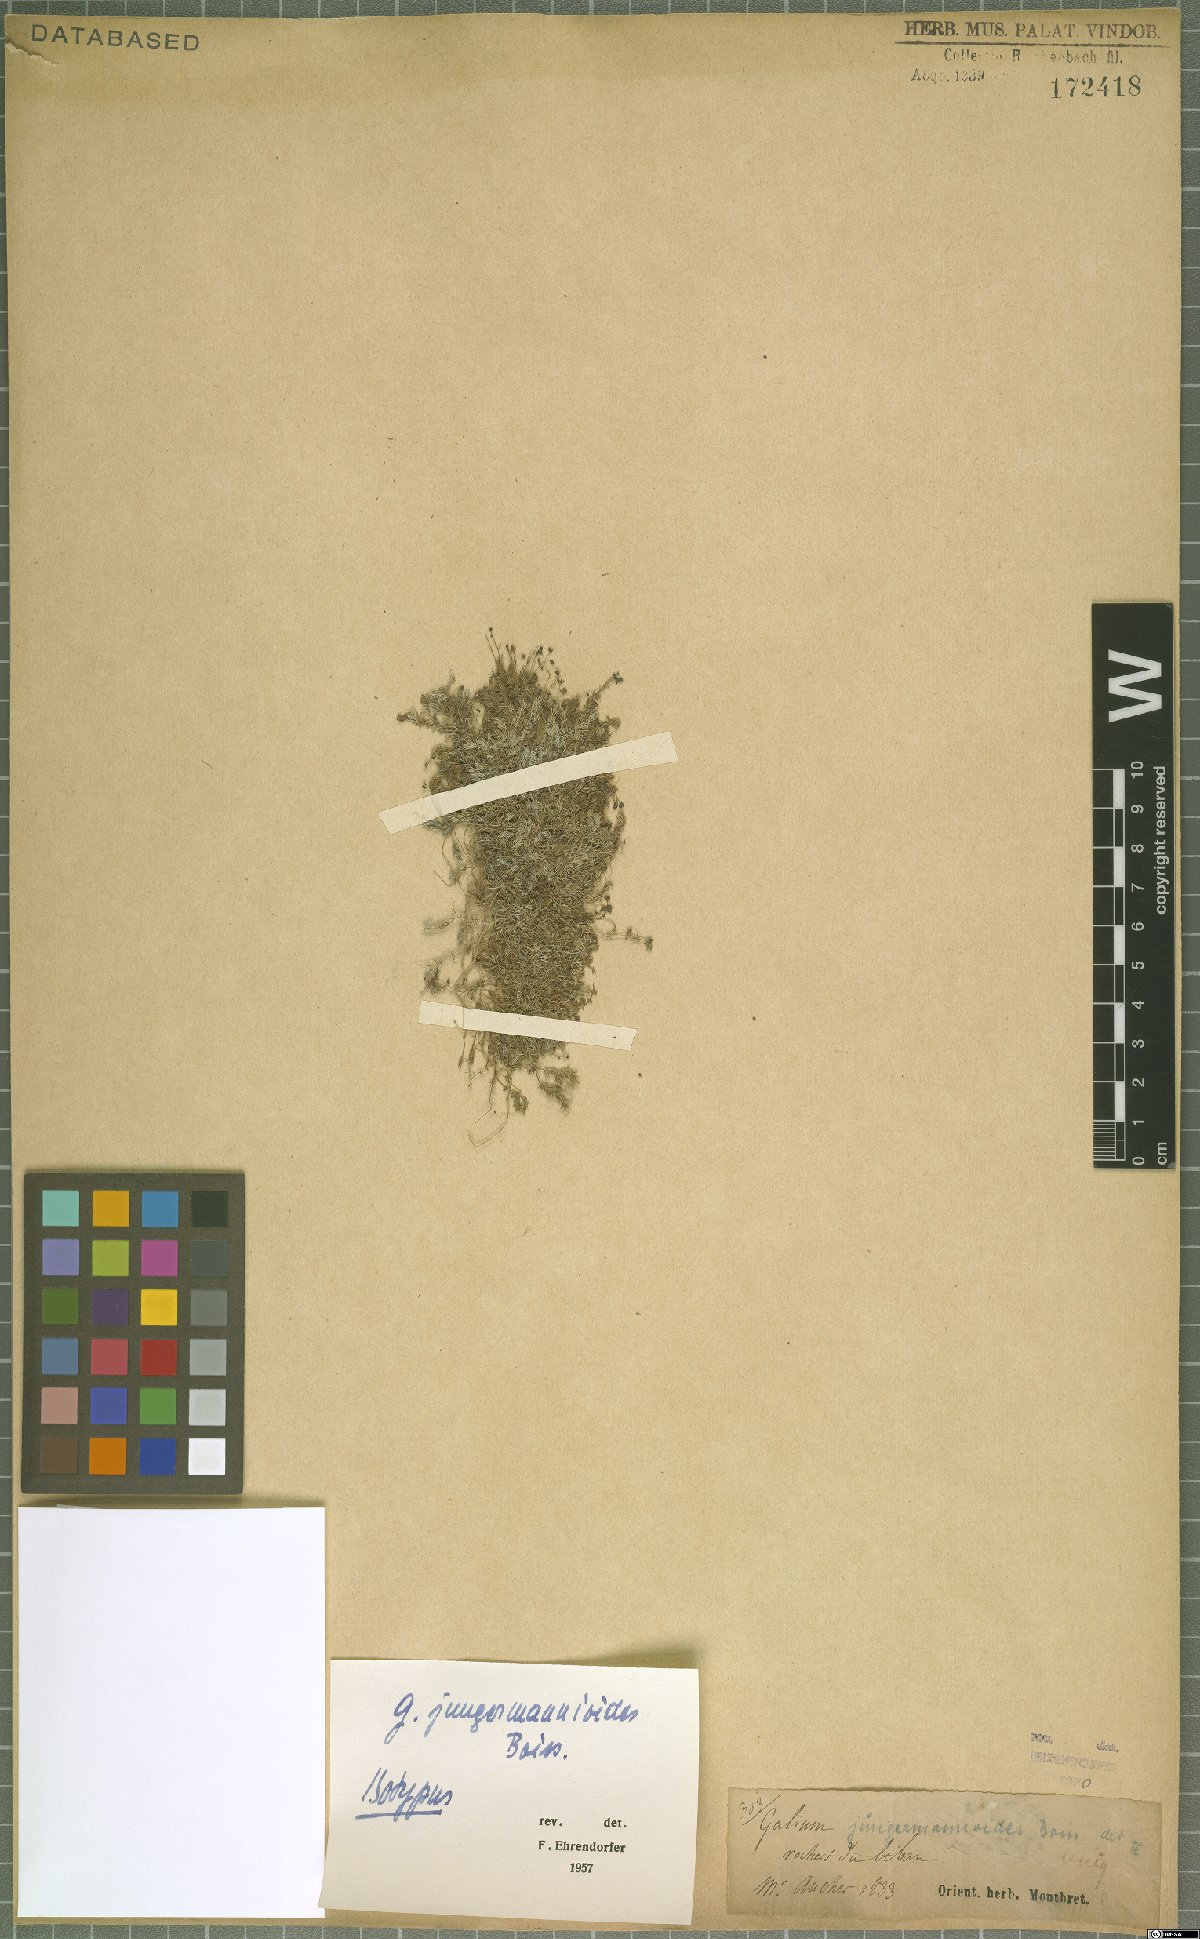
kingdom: Plantae
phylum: Tracheophyta
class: Magnoliopsida
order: Gentianales
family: Rubiaceae
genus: Galium
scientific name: Galium jungermannioides
